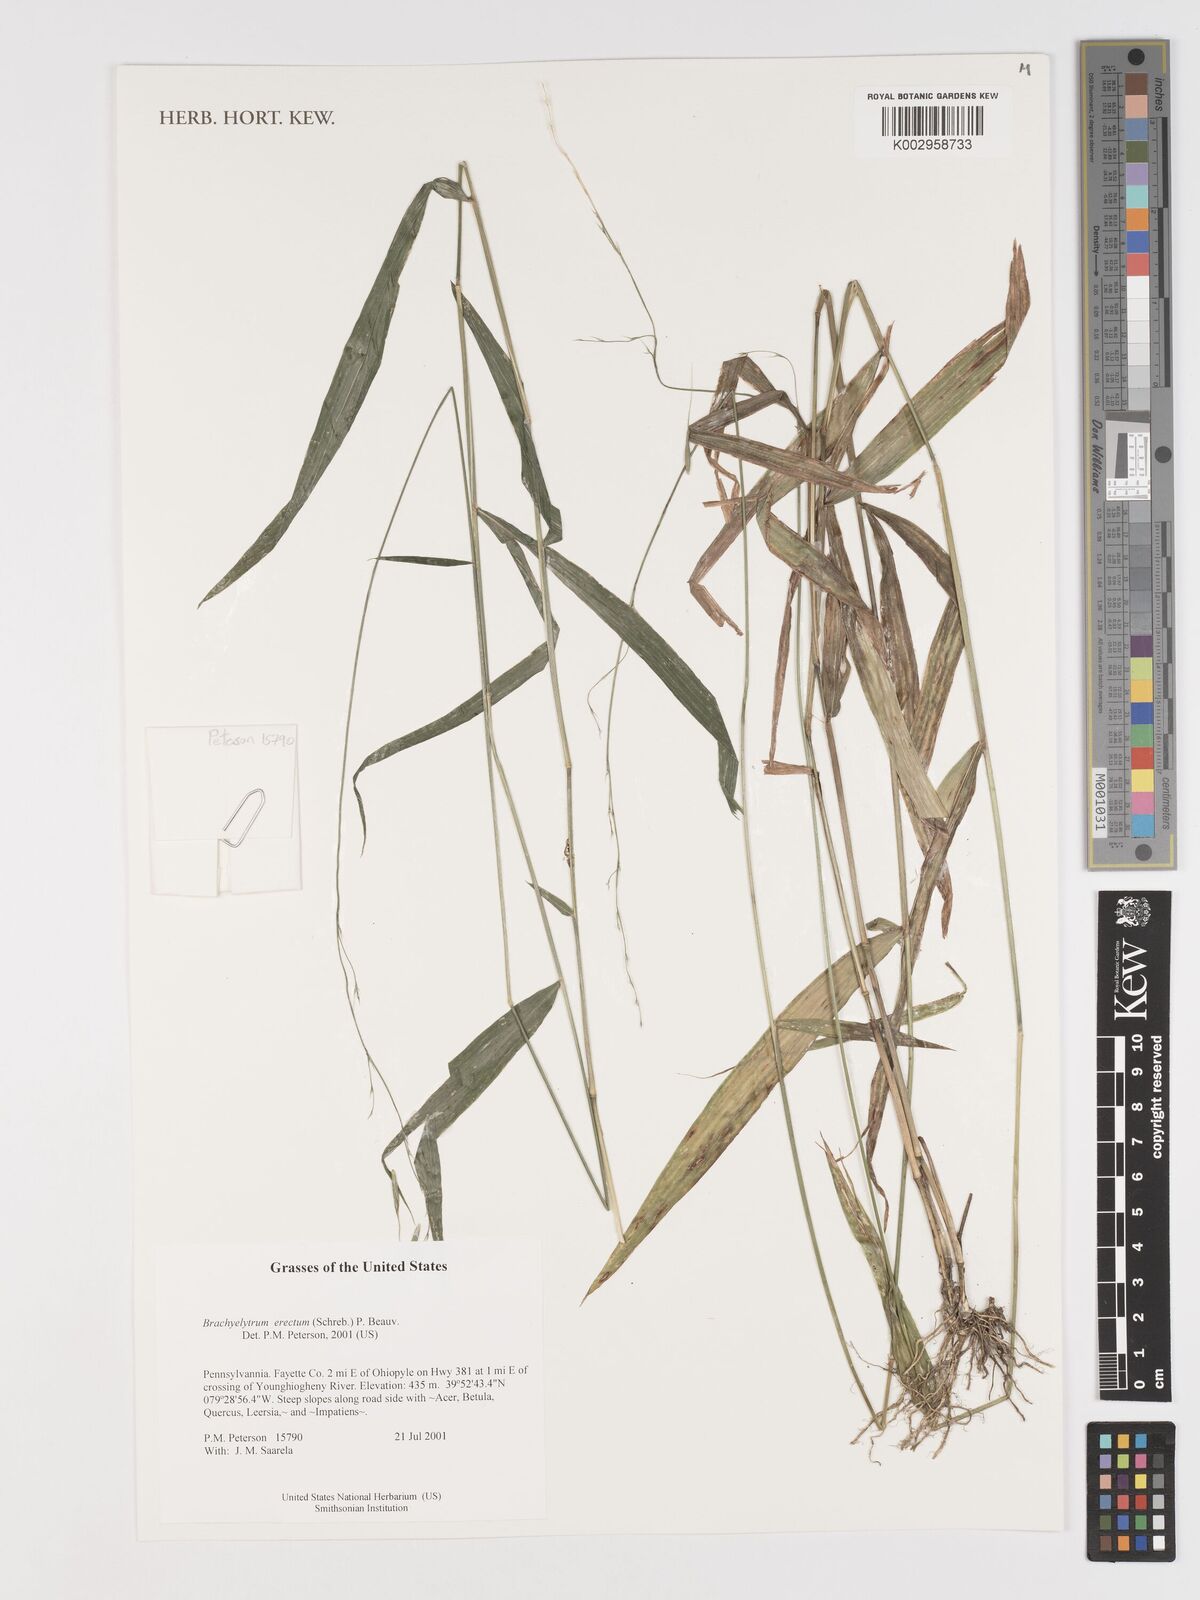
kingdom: Plantae
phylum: Tracheophyta
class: Liliopsida
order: Poales
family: Poaceae
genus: Brachyelytrum
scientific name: Brachyelytrum erectum
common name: Bearded shorthusk
